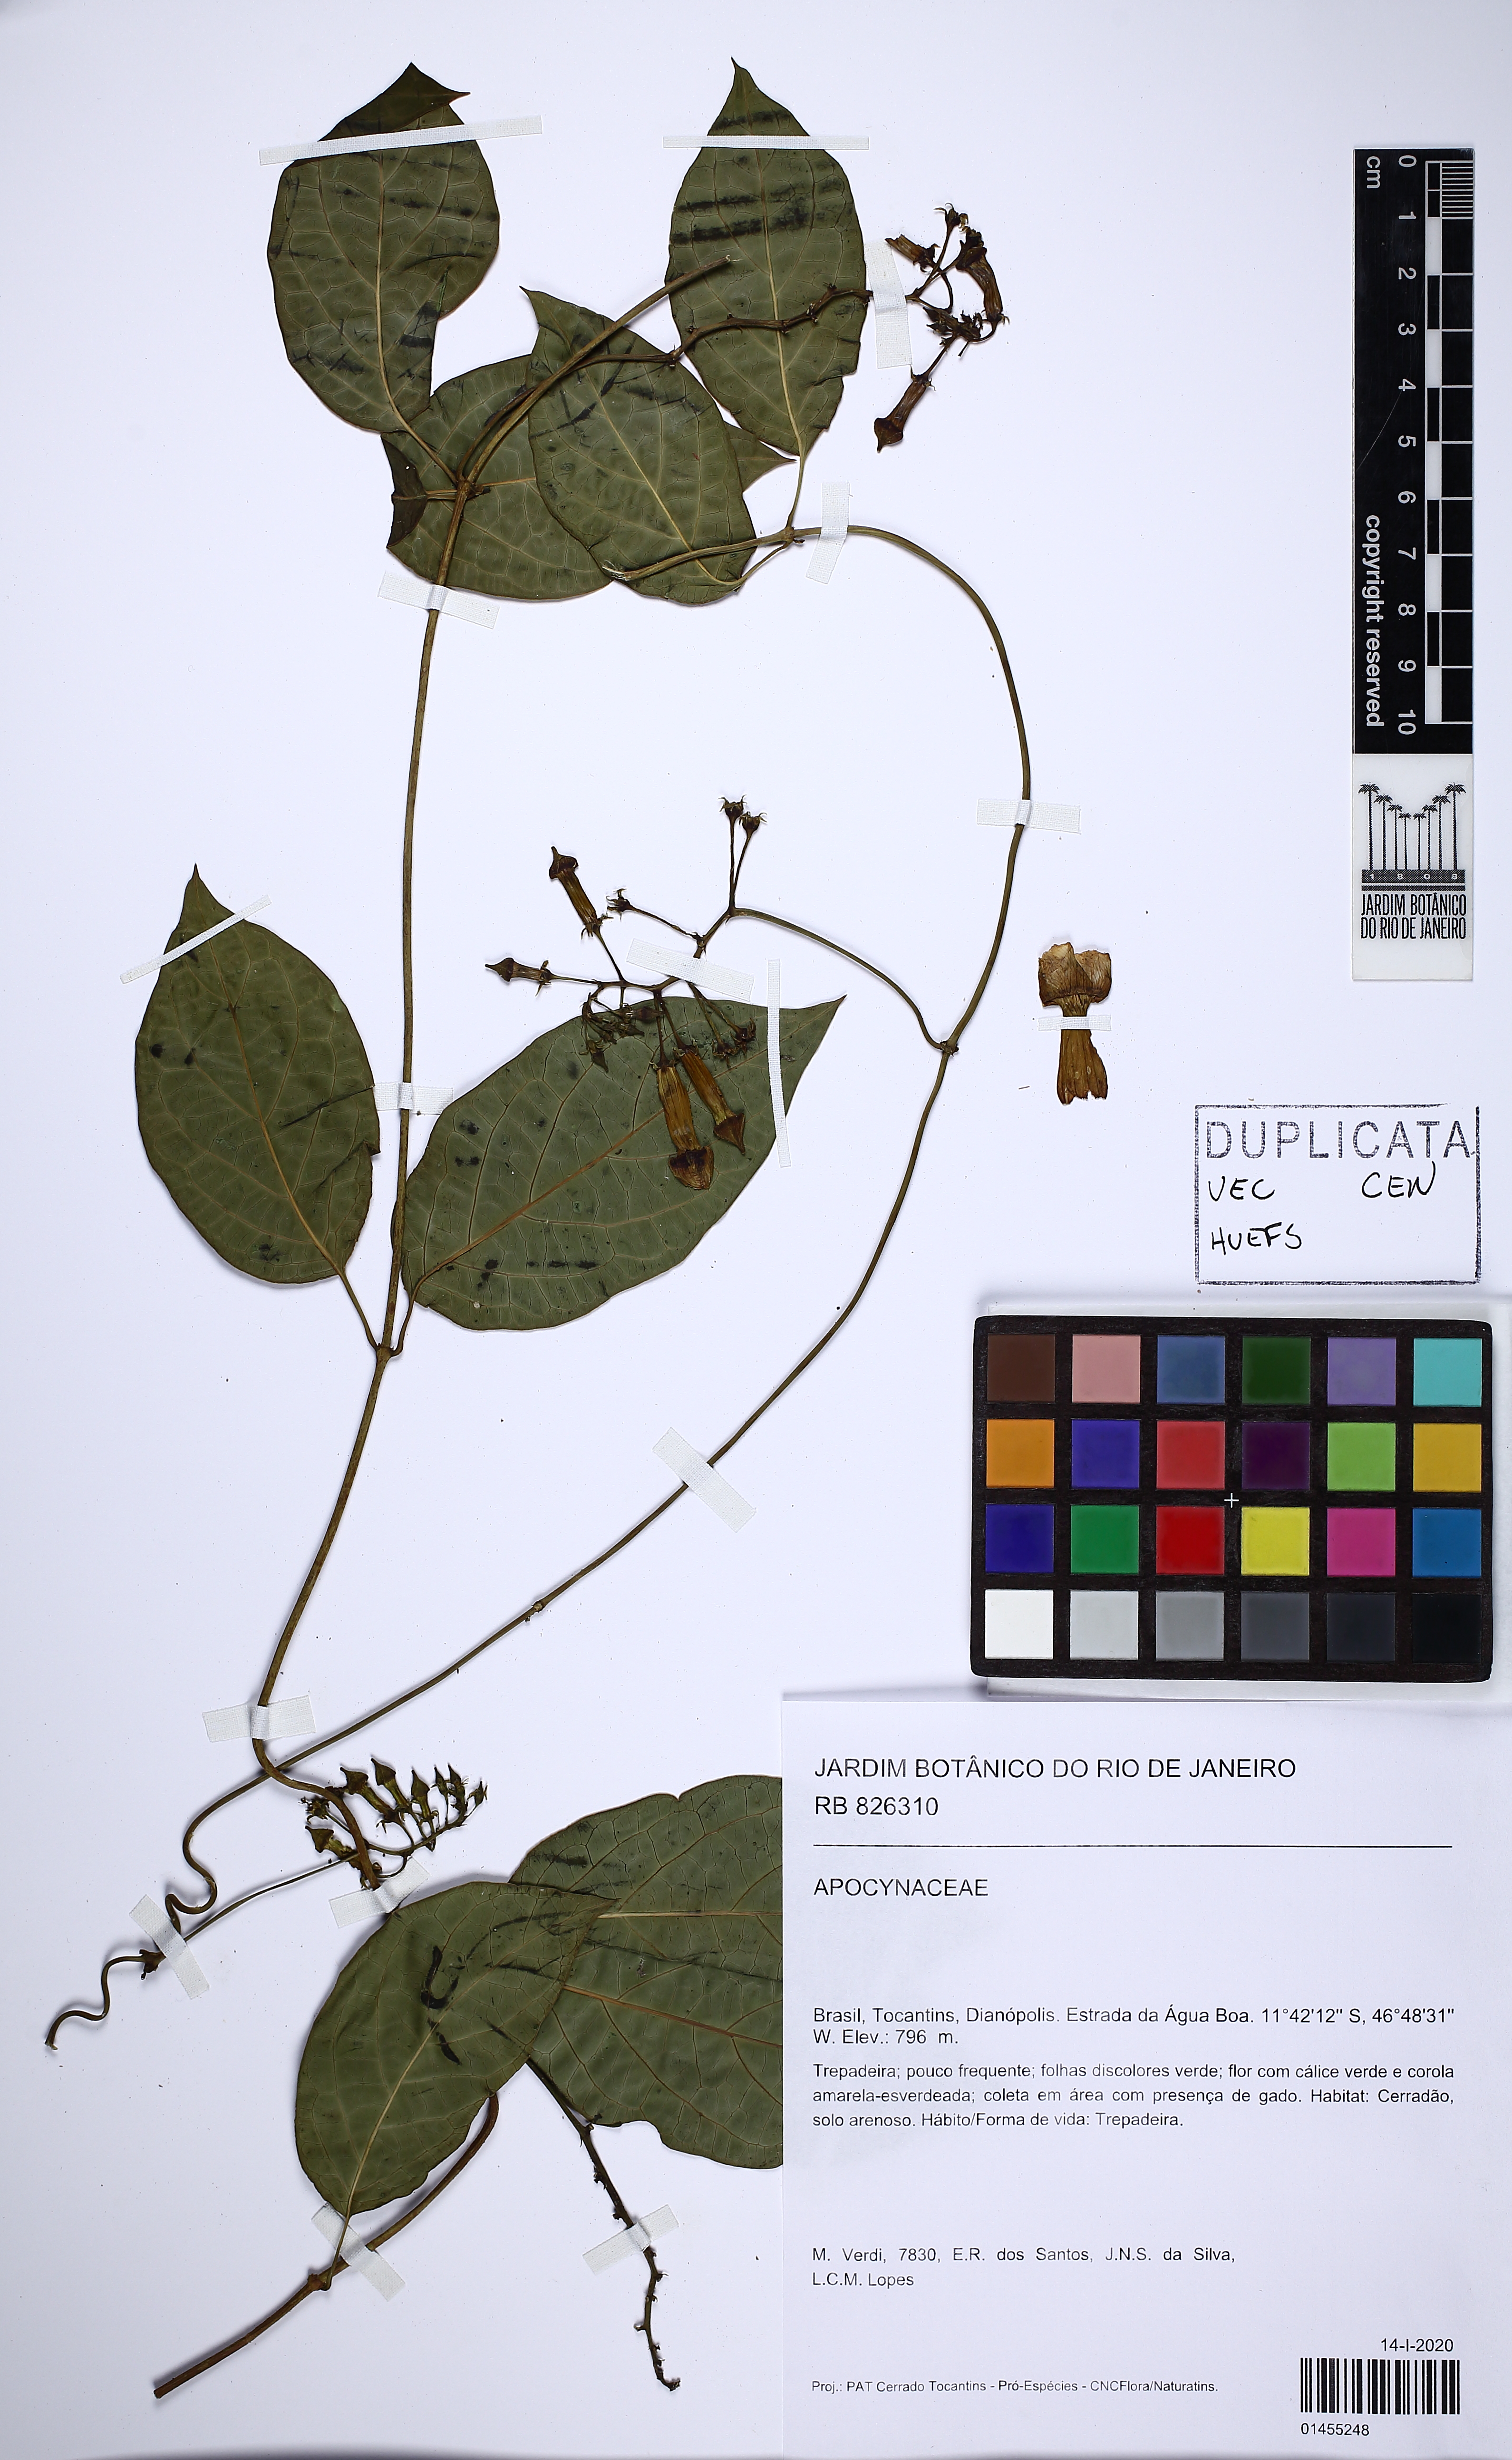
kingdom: Plantae
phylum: Tracheophyta
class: Magnoliopsida
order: Gentianales
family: Apocynaceae
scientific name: Apocynaceae
